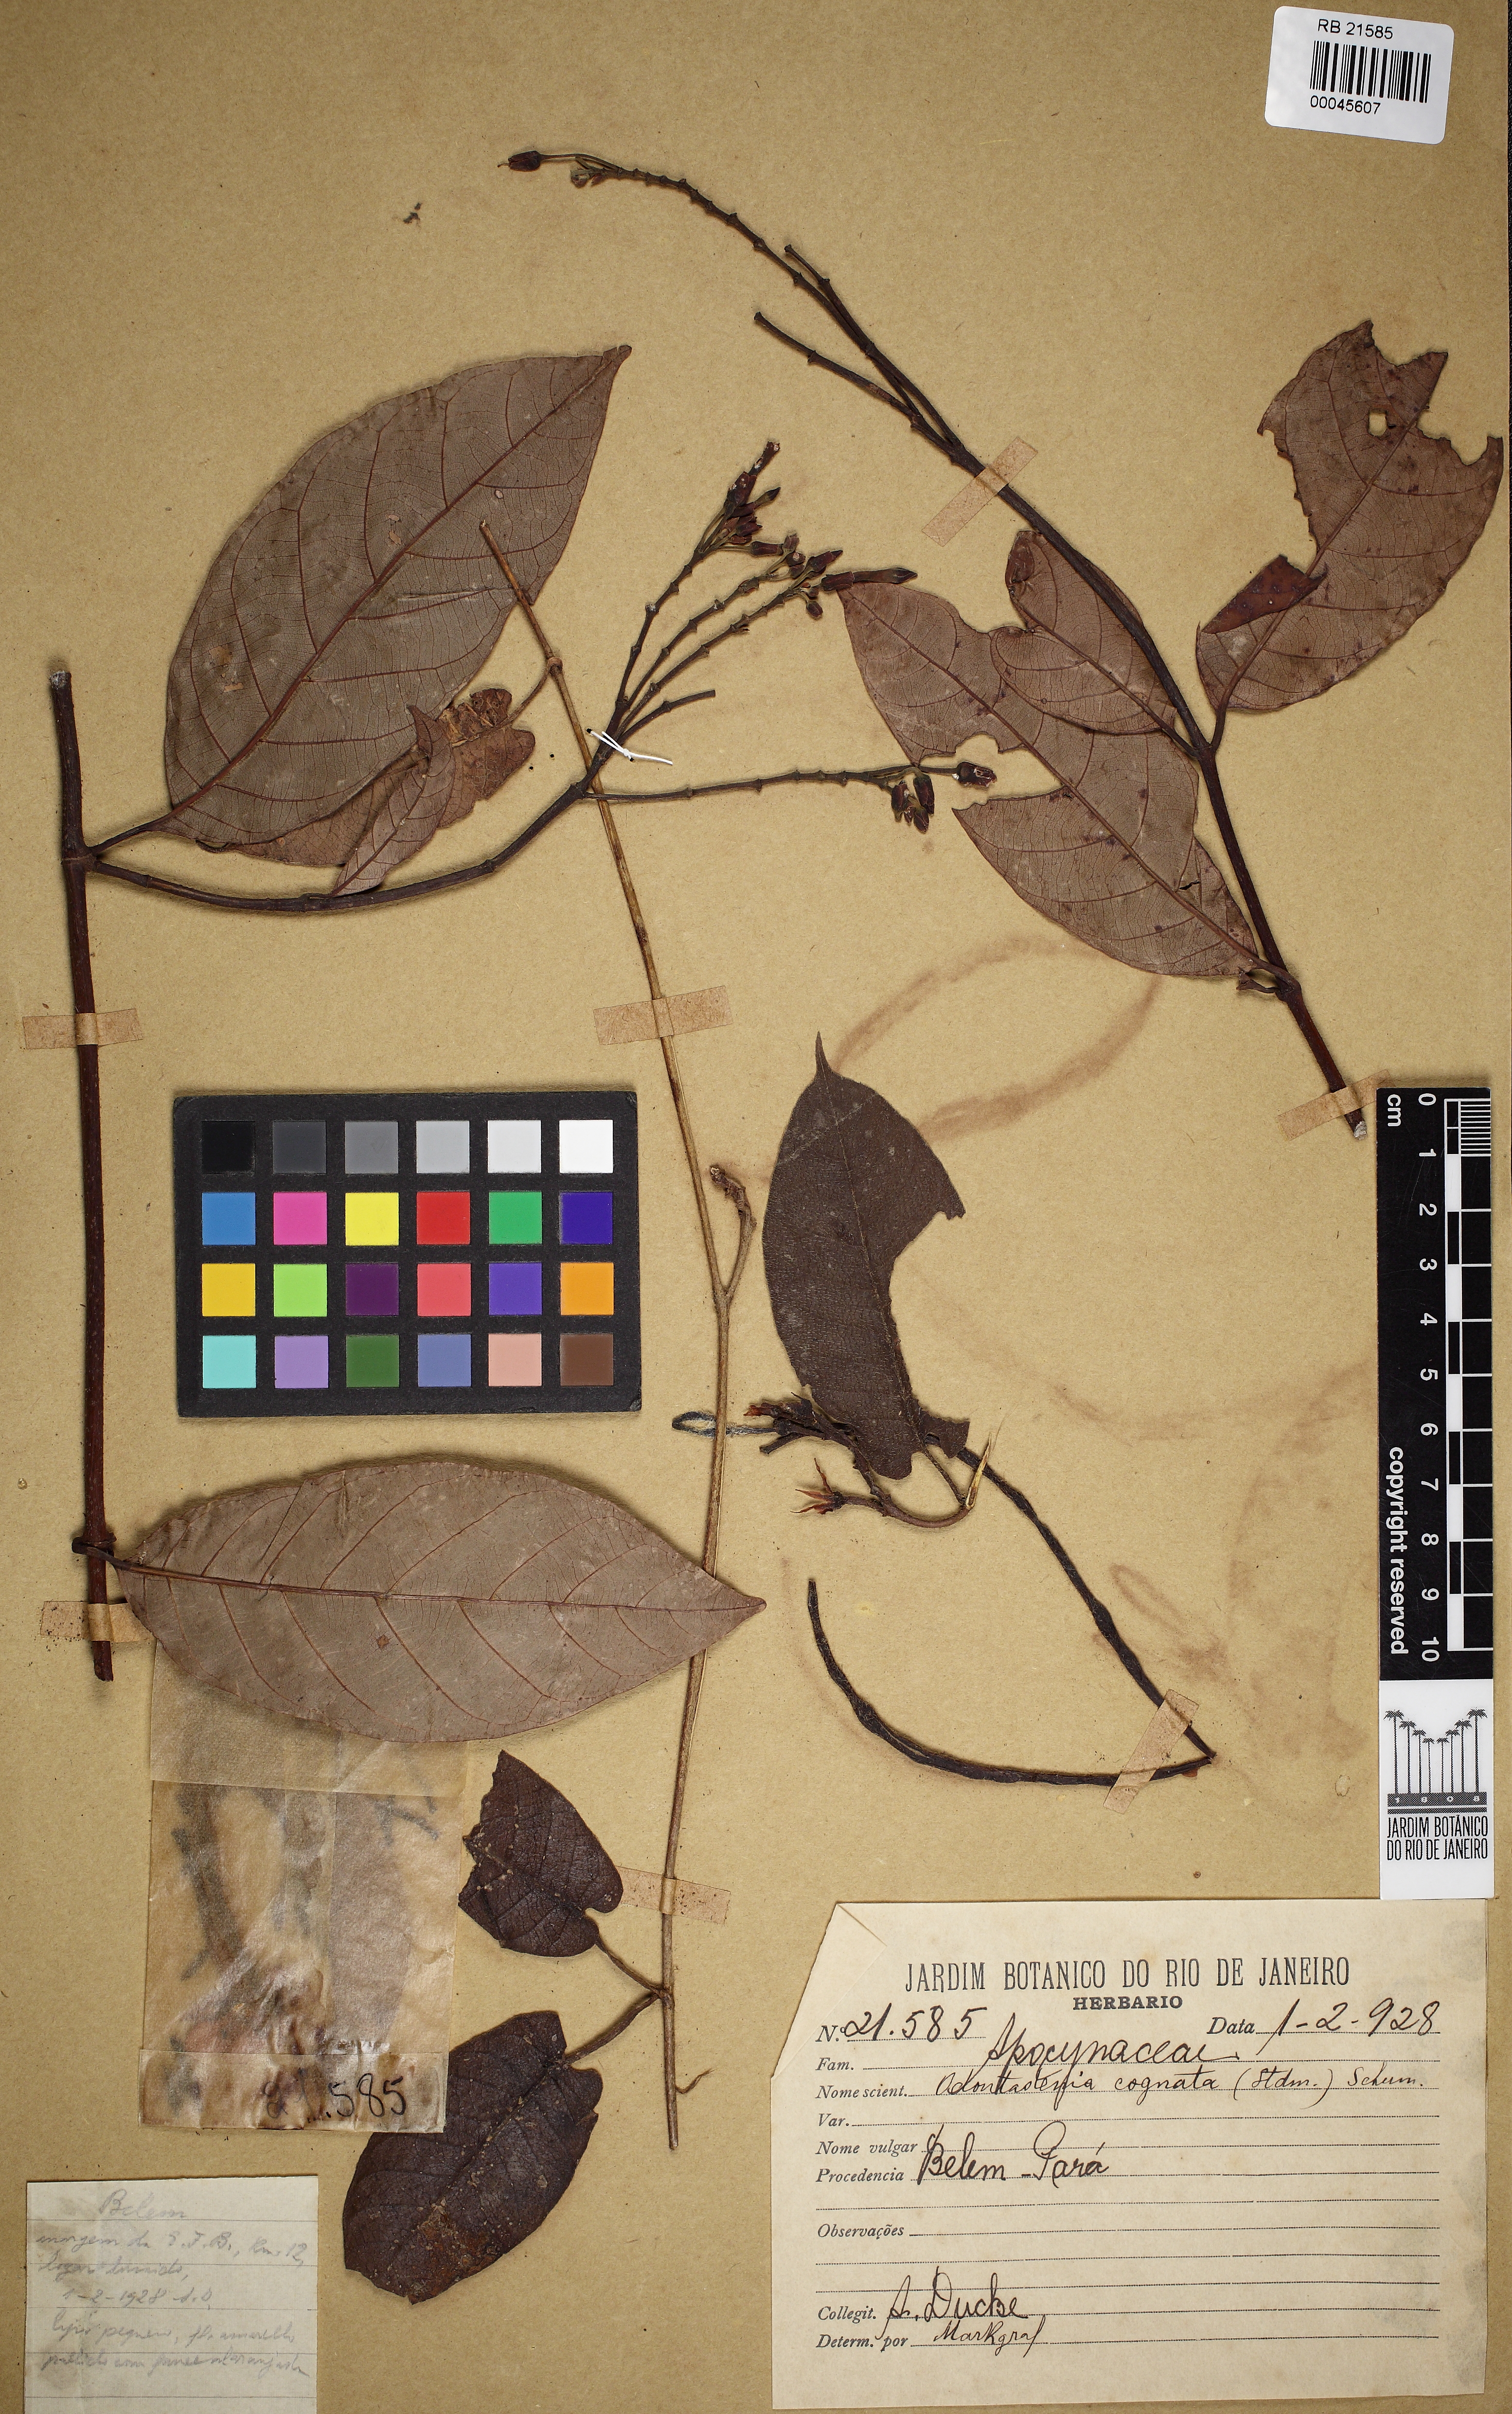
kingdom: Plantae
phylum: Tracheophyta
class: Magnoliopsida
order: Gentianales
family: Apocynaceae
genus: Odontadenia
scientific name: Odontadenia verrucosa
